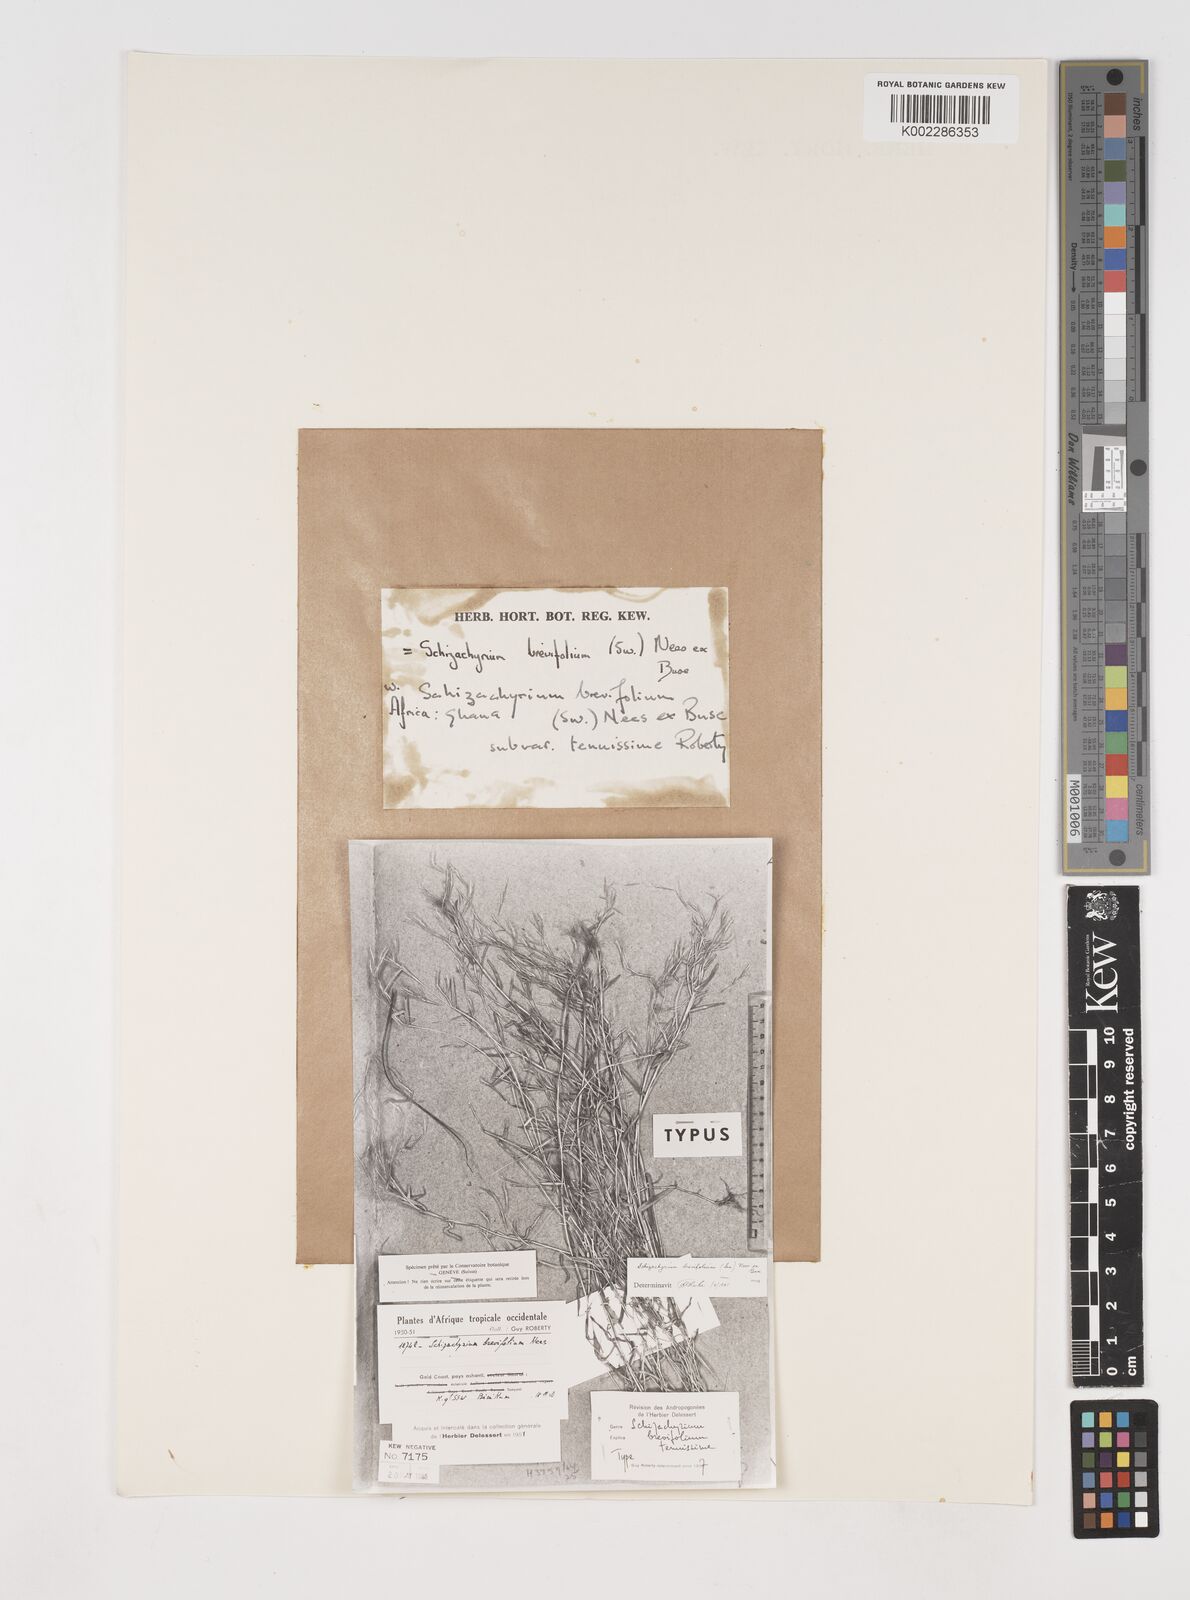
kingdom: Plantae
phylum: Tracheophyta
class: Liliopsida
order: Poales
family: Poaceae
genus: Schizachyrium
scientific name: Schizachyrium brevifolium
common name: Serillo dulce
